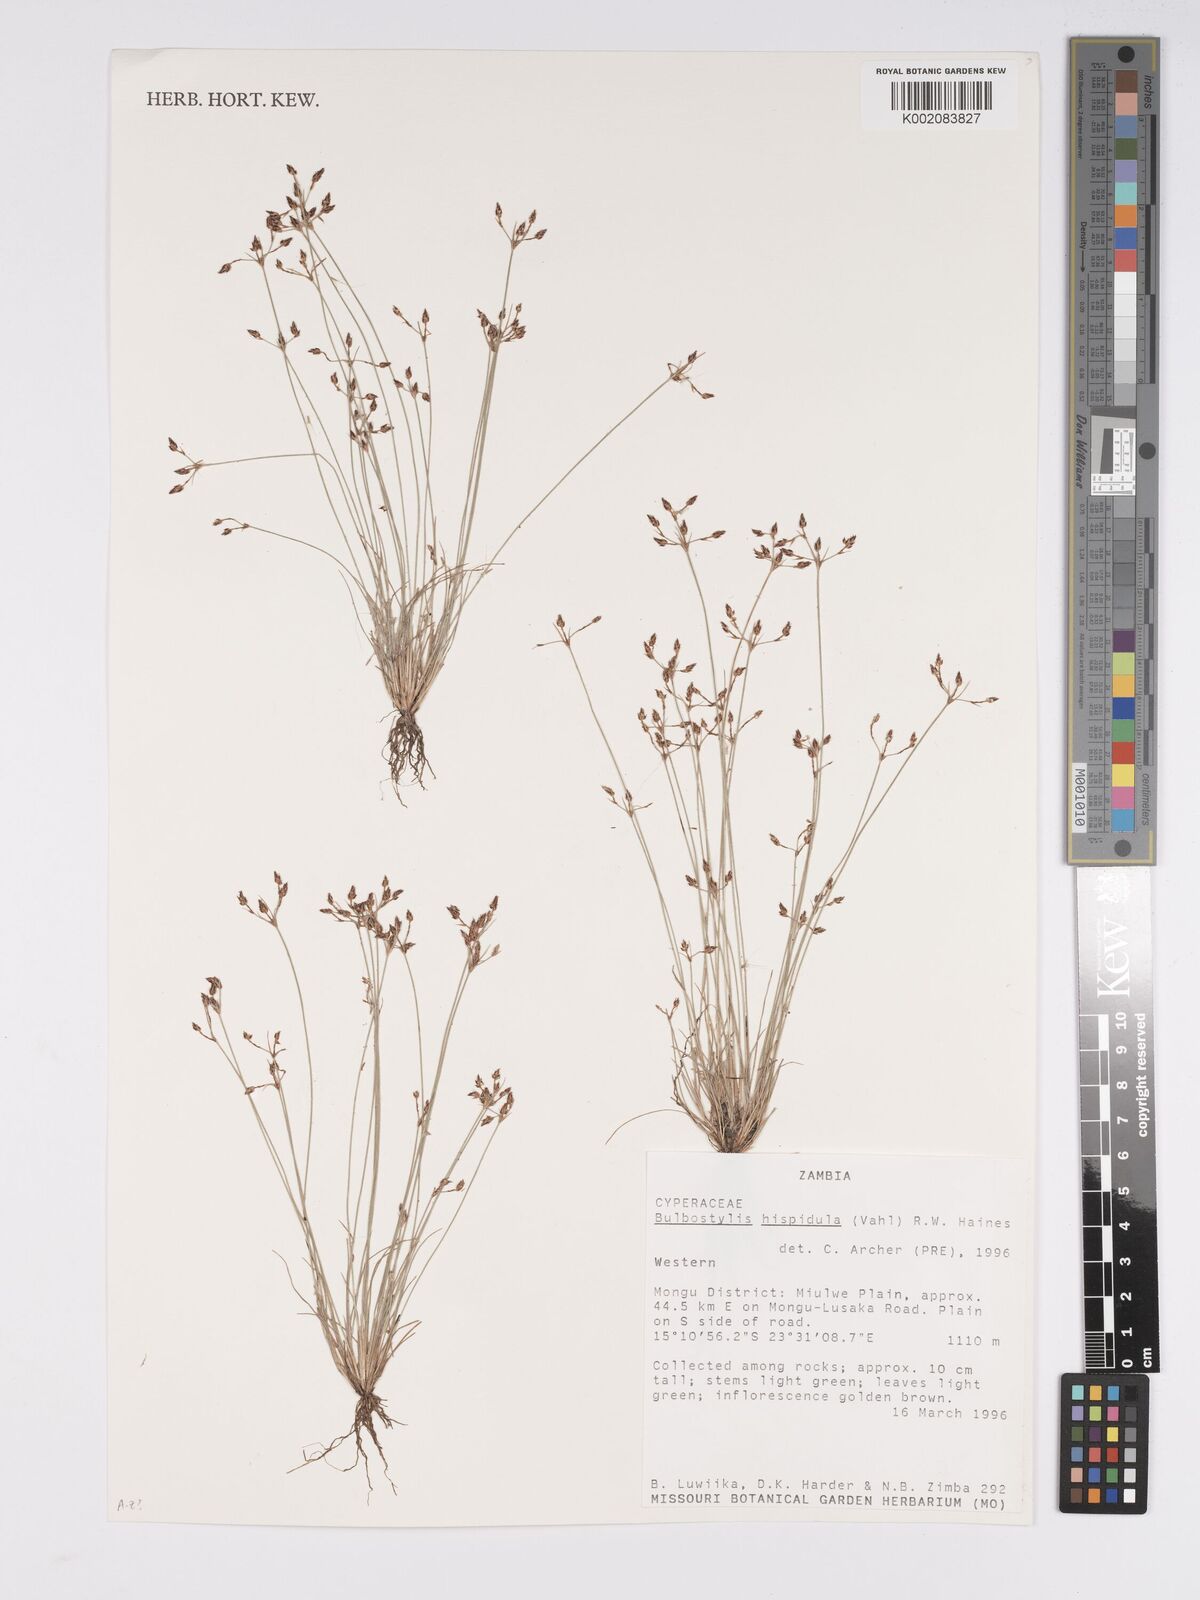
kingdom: Plantae
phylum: Tracheophyta
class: Liliopsida
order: Poales
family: Cyperaceae
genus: Bulbostylis
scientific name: Bulbostylis hispidula
